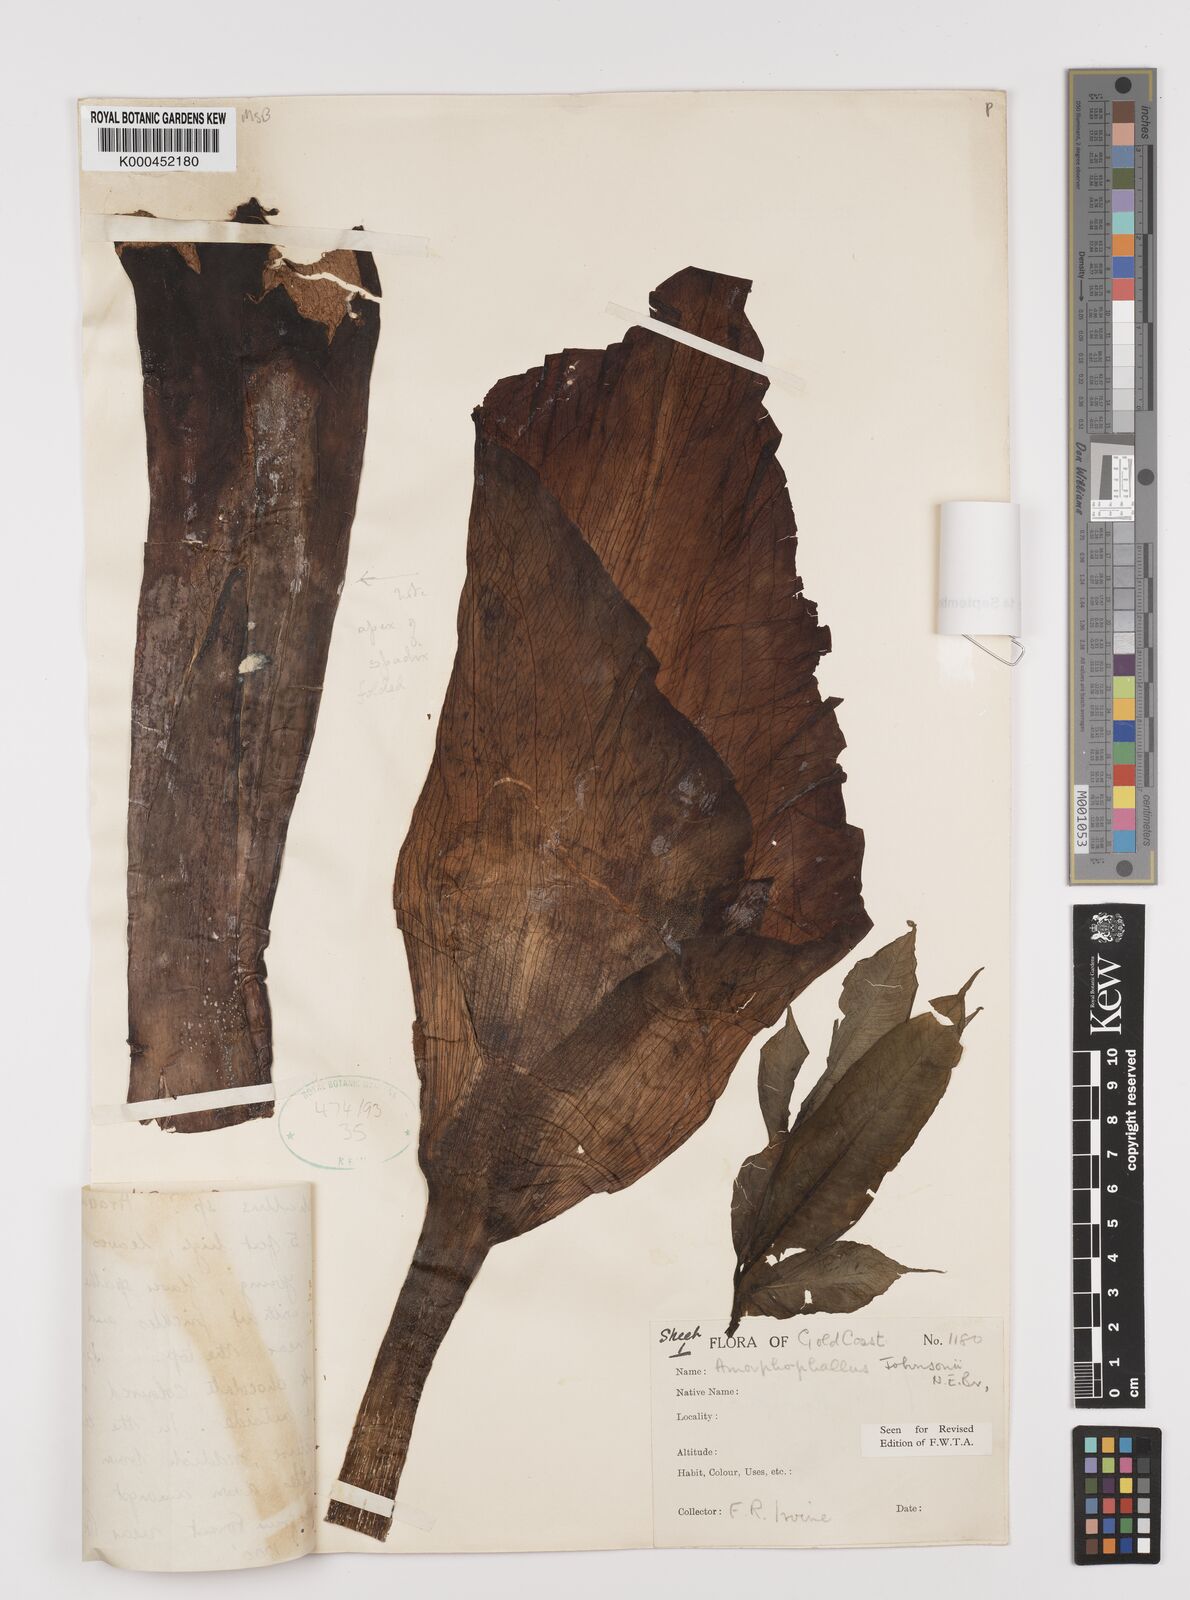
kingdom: Plantae
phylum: Tracheophyta
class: Liliopsida
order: Alismatales
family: Araceae
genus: Amorphophallus
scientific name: Amorphophallus johnsonii
